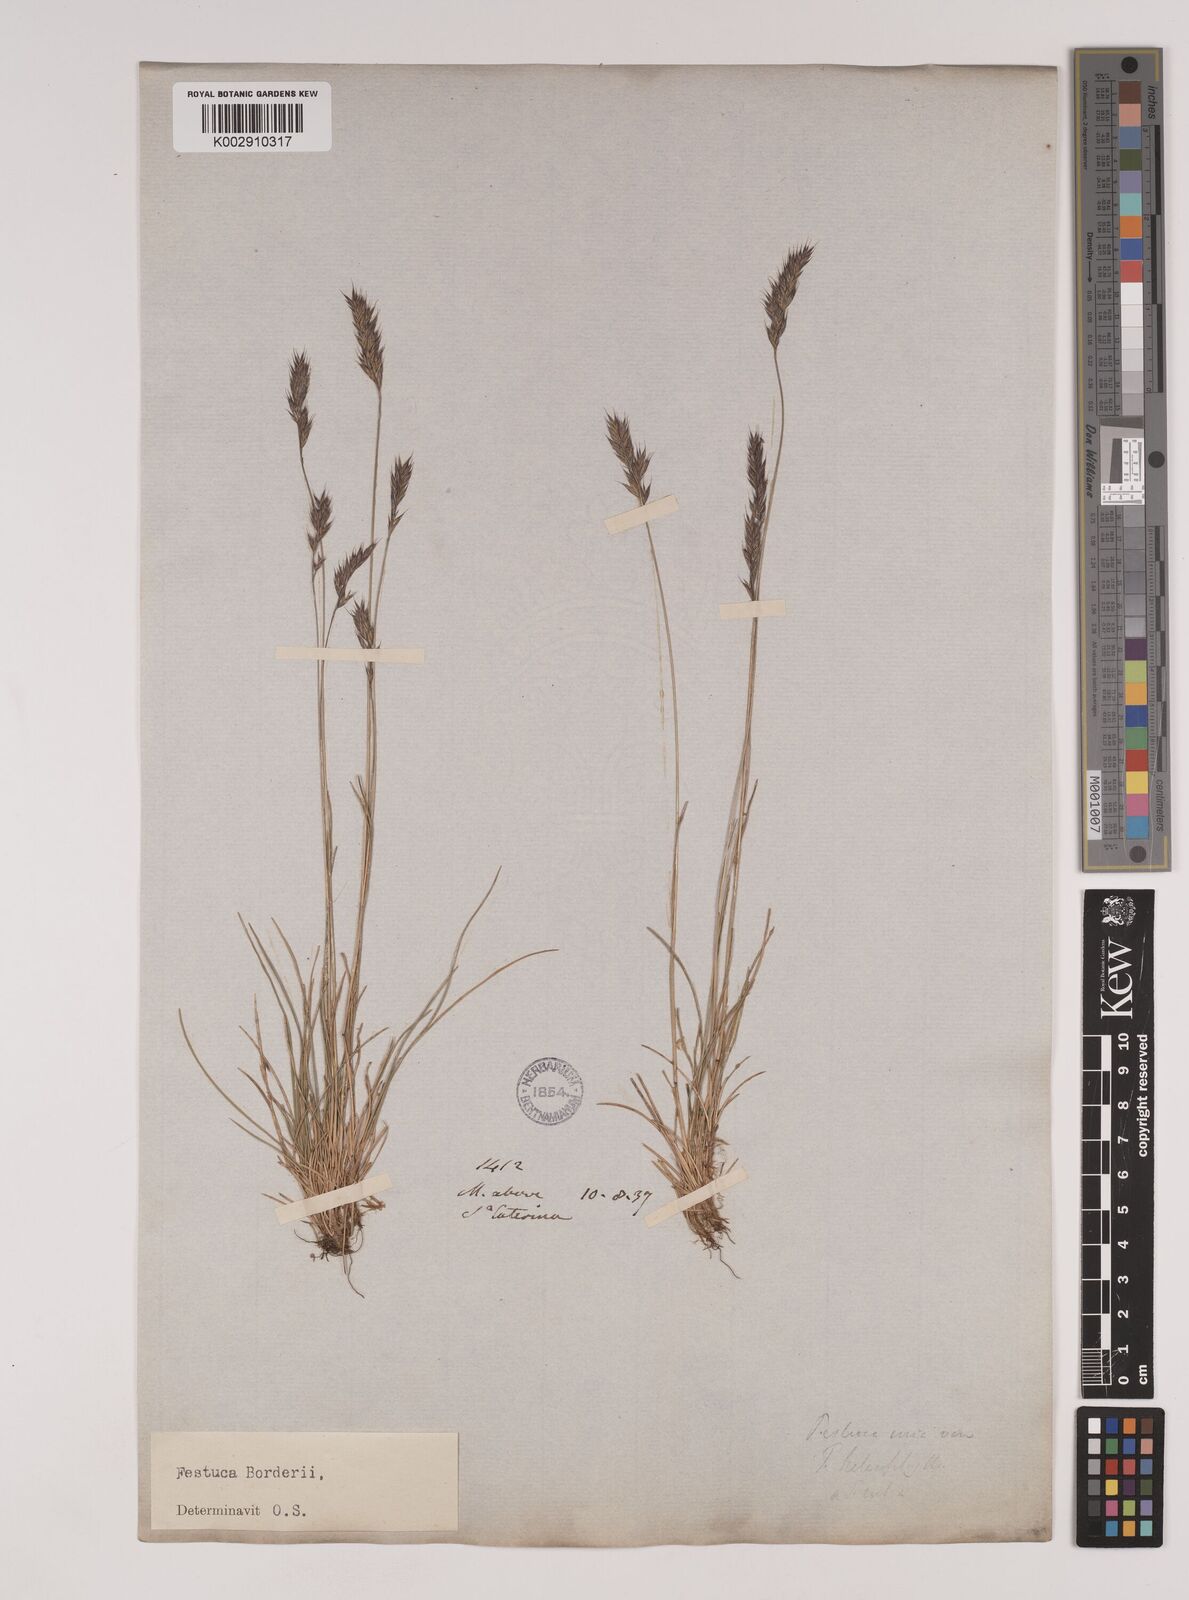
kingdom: Plantae
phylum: Tracheophyta
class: Liliopsida
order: Poales
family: Poaceae
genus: Festuca
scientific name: Festuca borderei
